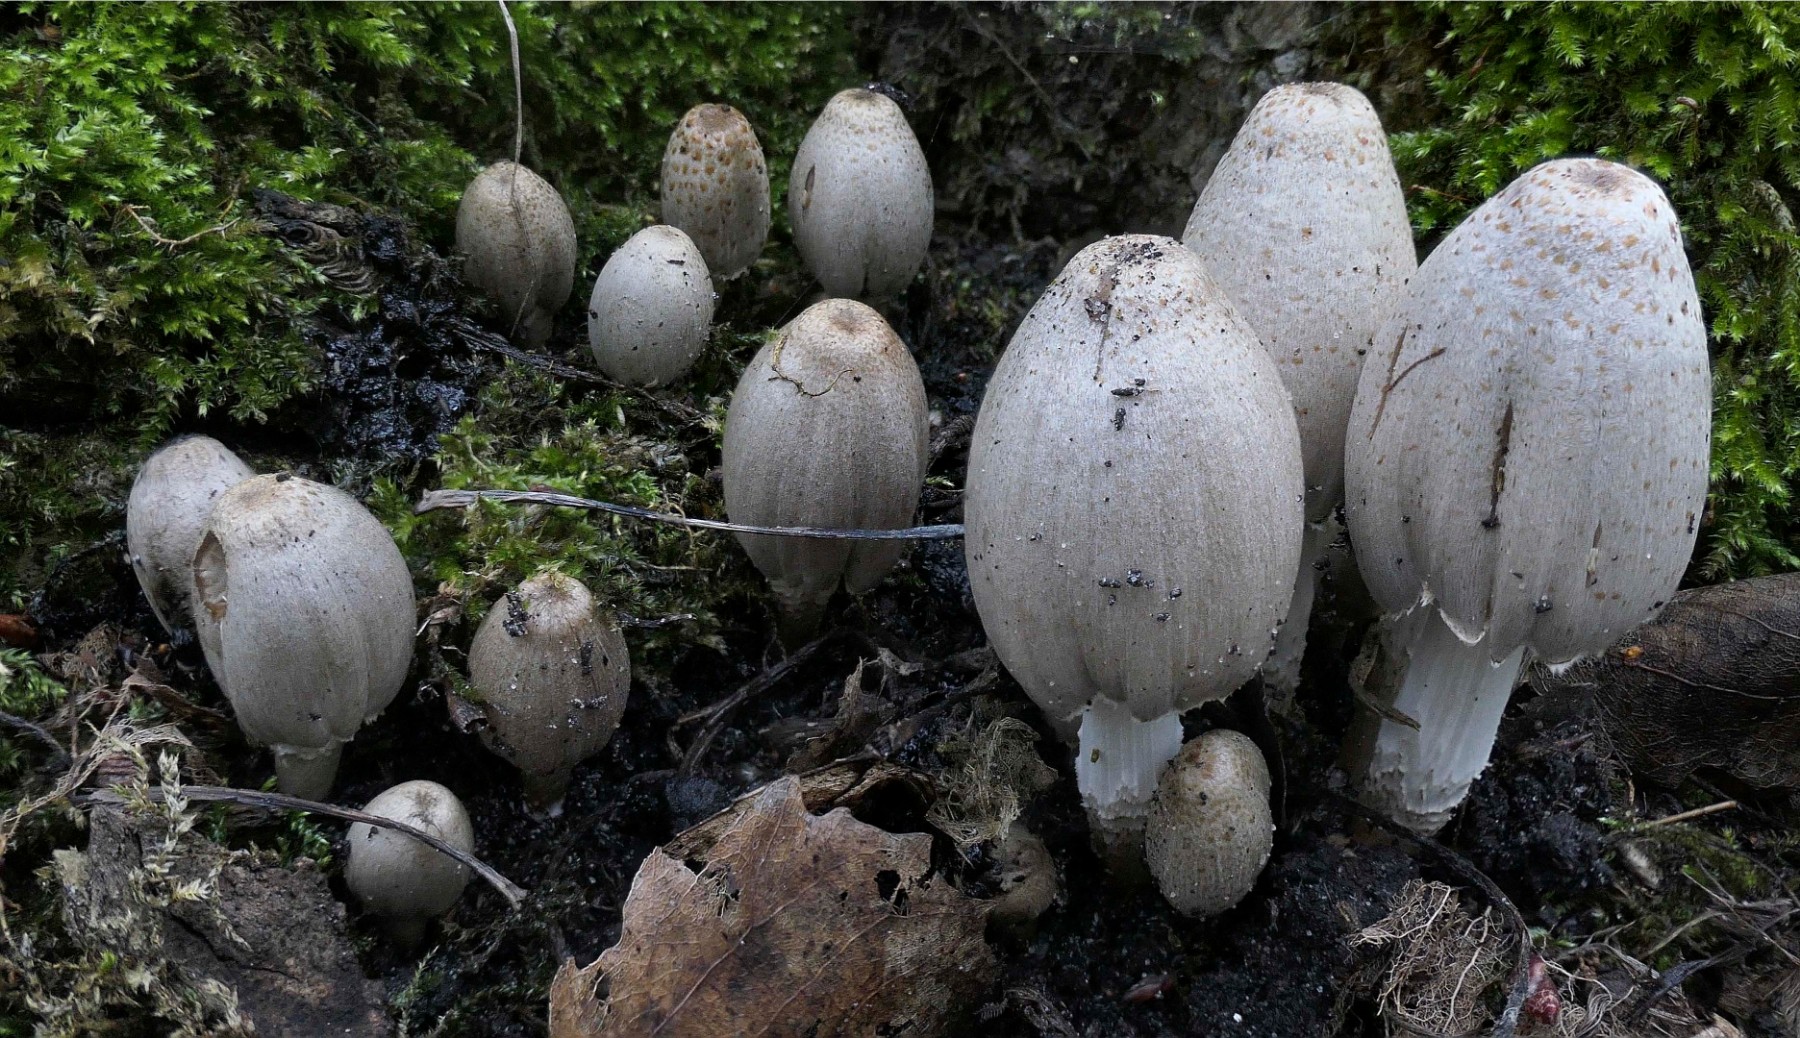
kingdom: Fungi
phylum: Basidiomycota
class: Agaricomycetes
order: Agaricales
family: Psathyrellaceae
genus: Coprinopsis
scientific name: Coprinopsis romagnesiana
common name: brunskællet blækhat
